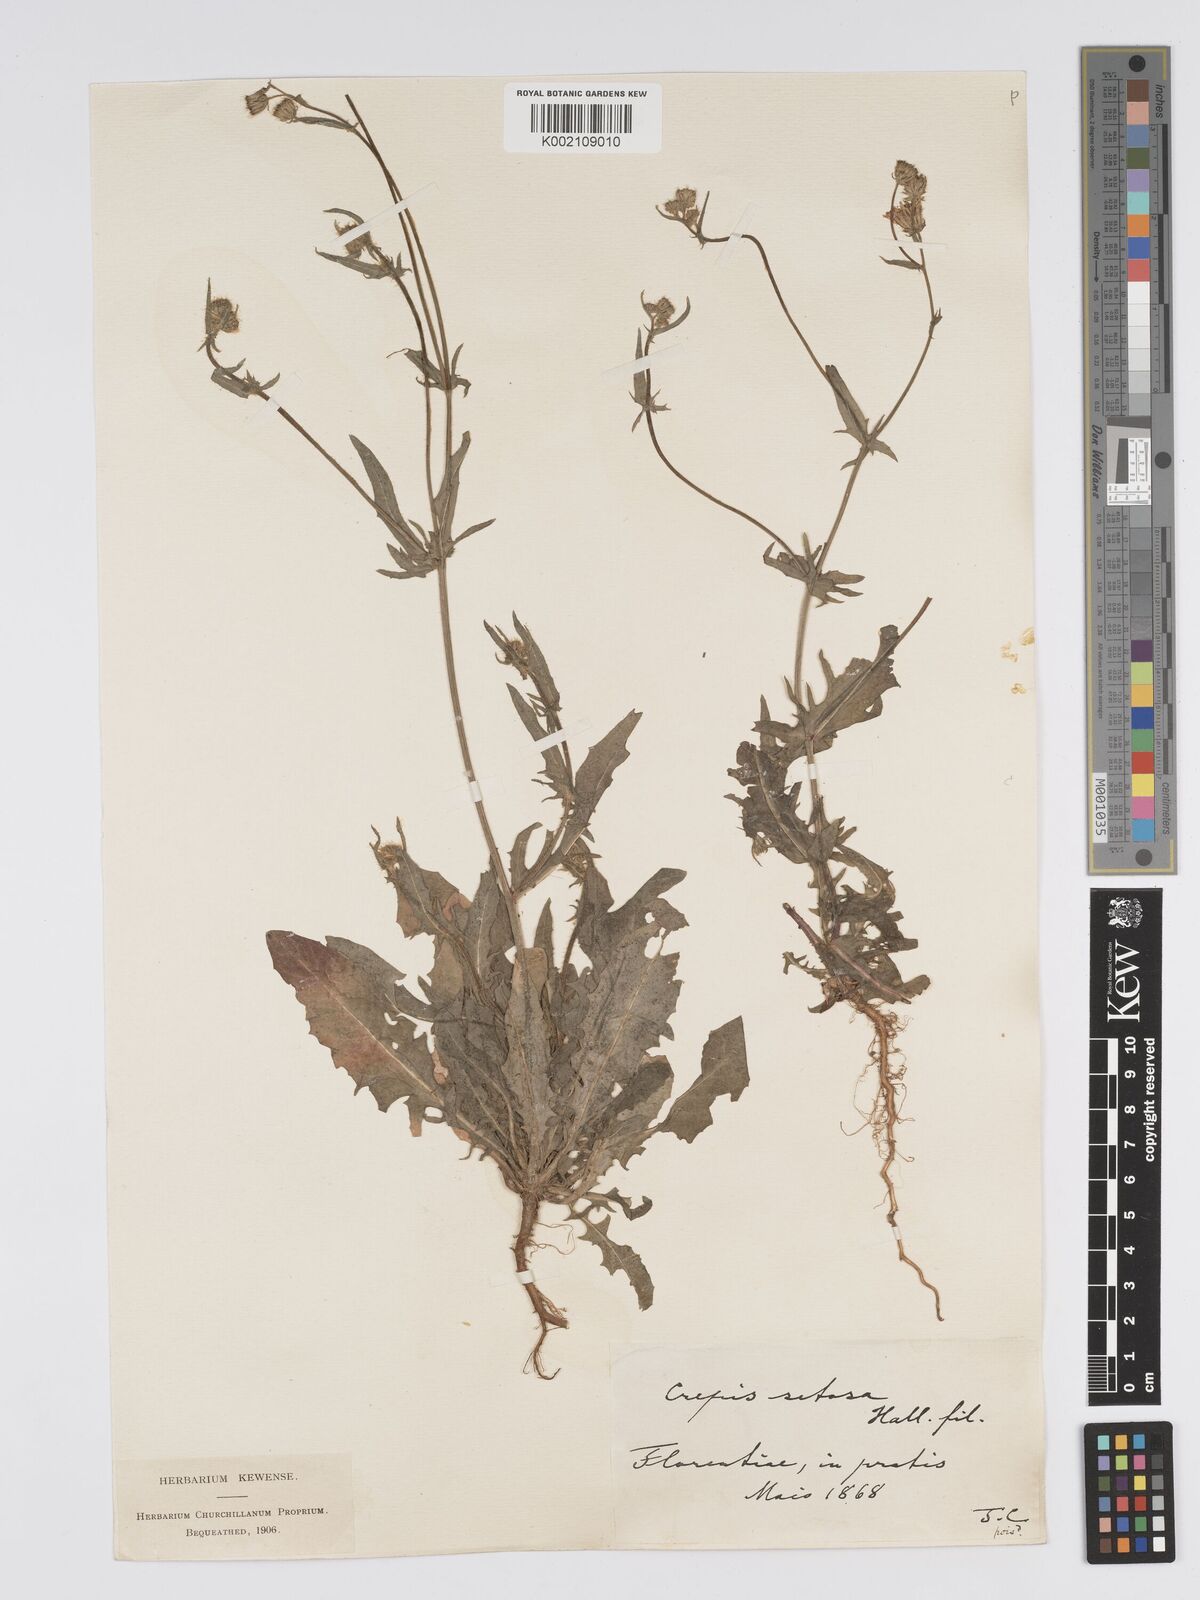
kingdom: Plantae
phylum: Tracheophyta
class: Magnoliopsida
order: Asterales
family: Asteraceae
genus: Crepis
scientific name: Crepis setosa
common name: Bristly hawk's-beard
